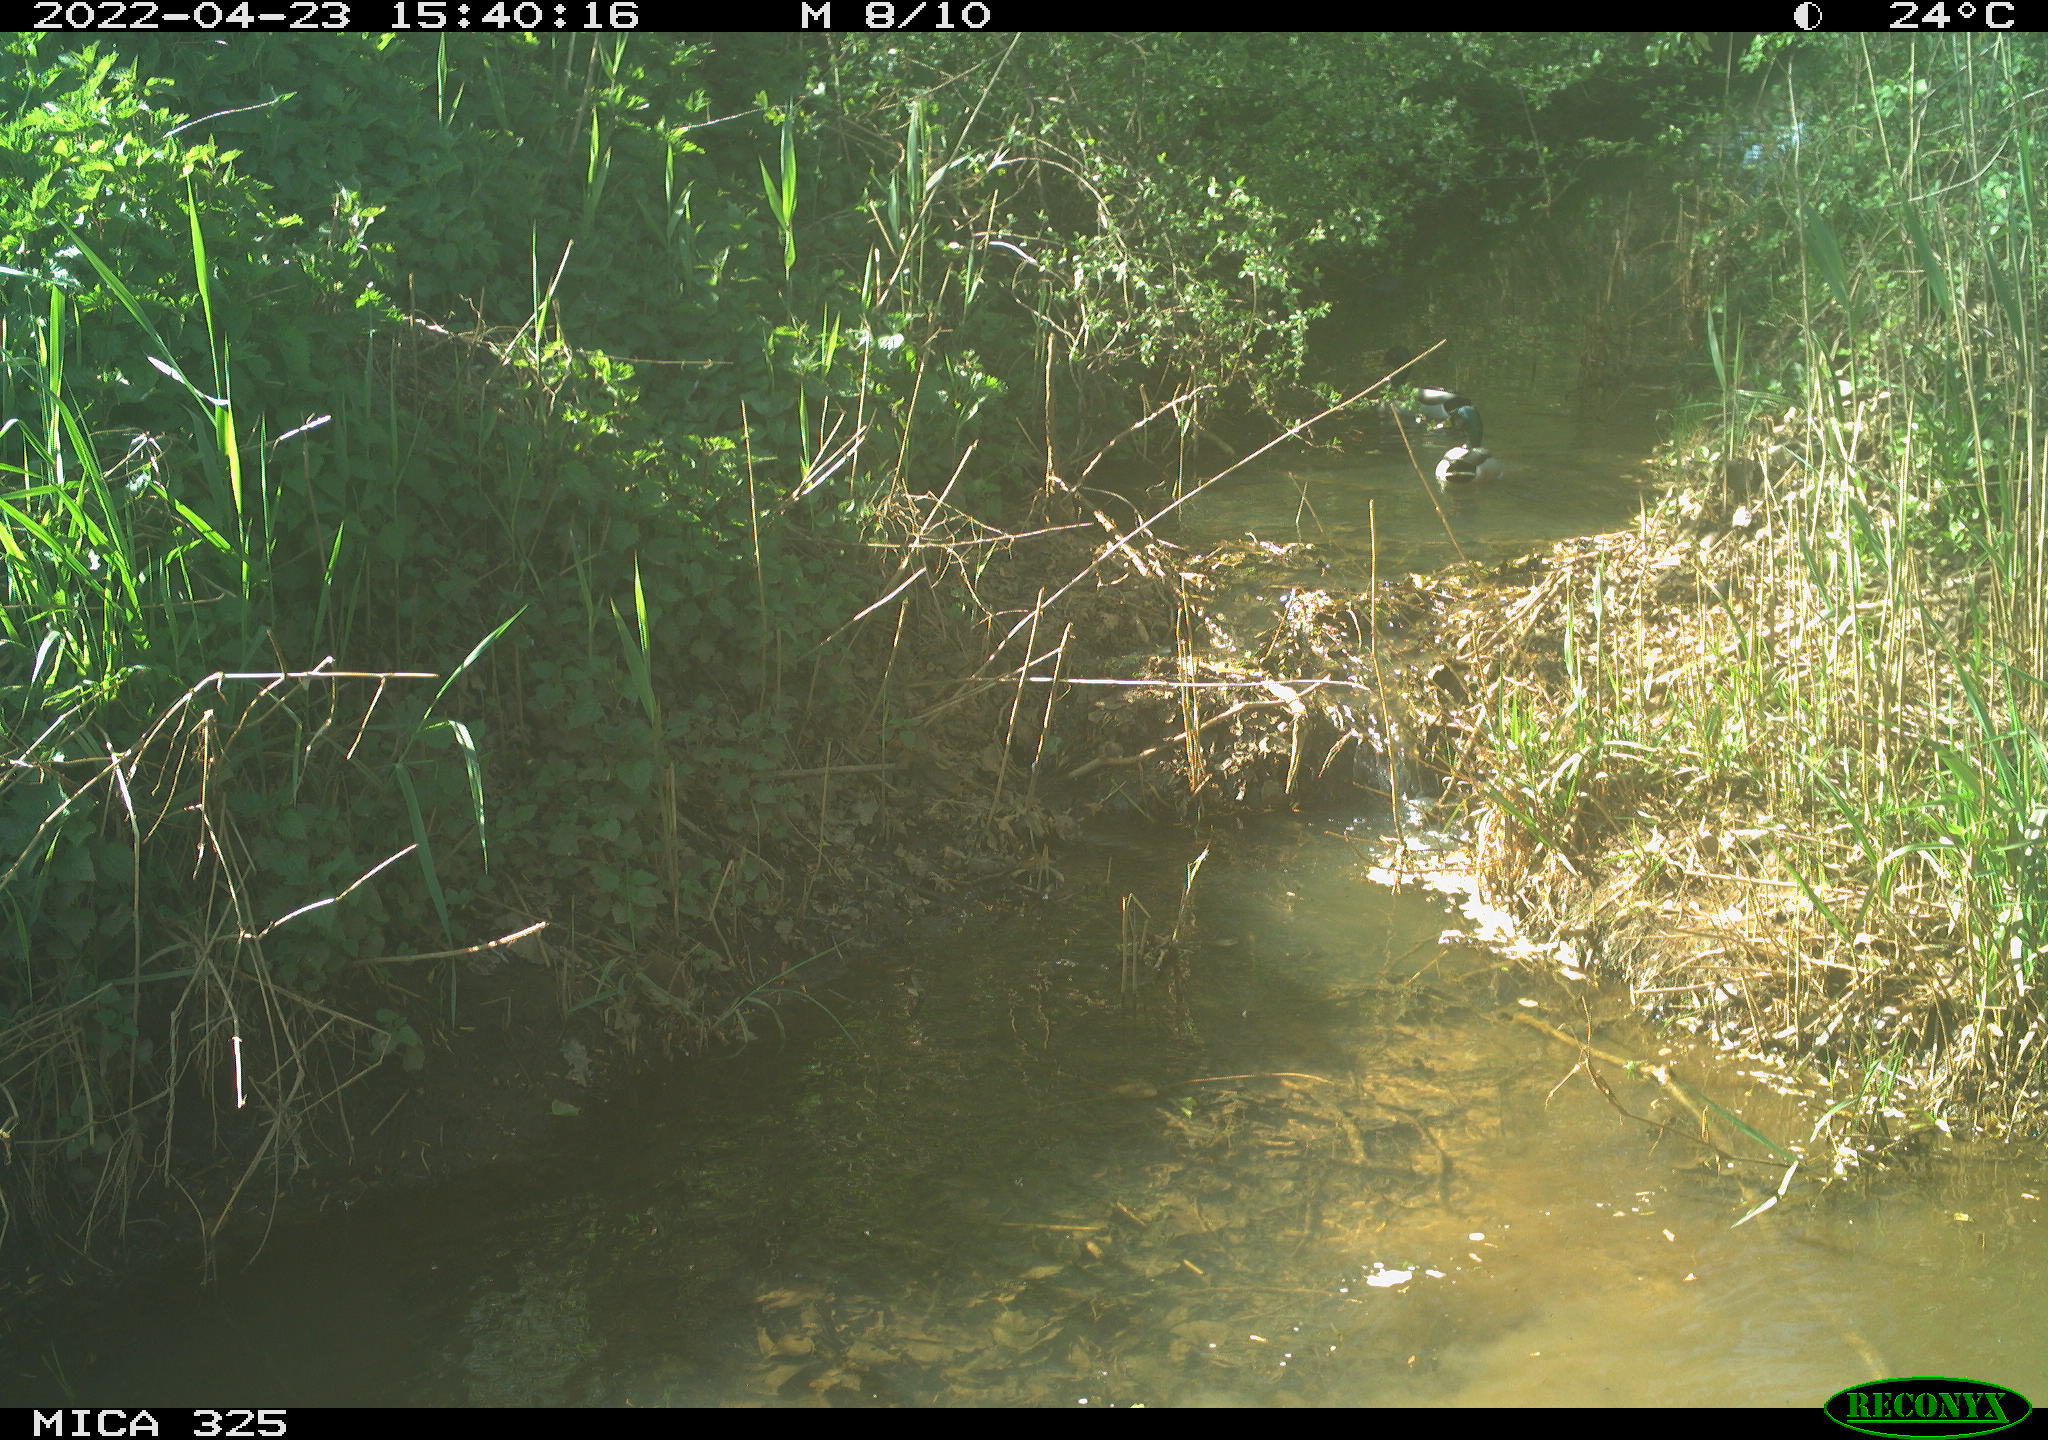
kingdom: Animalia
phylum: Chordata
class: Aves
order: Anseriformes
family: Anatidae
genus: Anas
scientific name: Anas platyrhynchos
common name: Mallard
